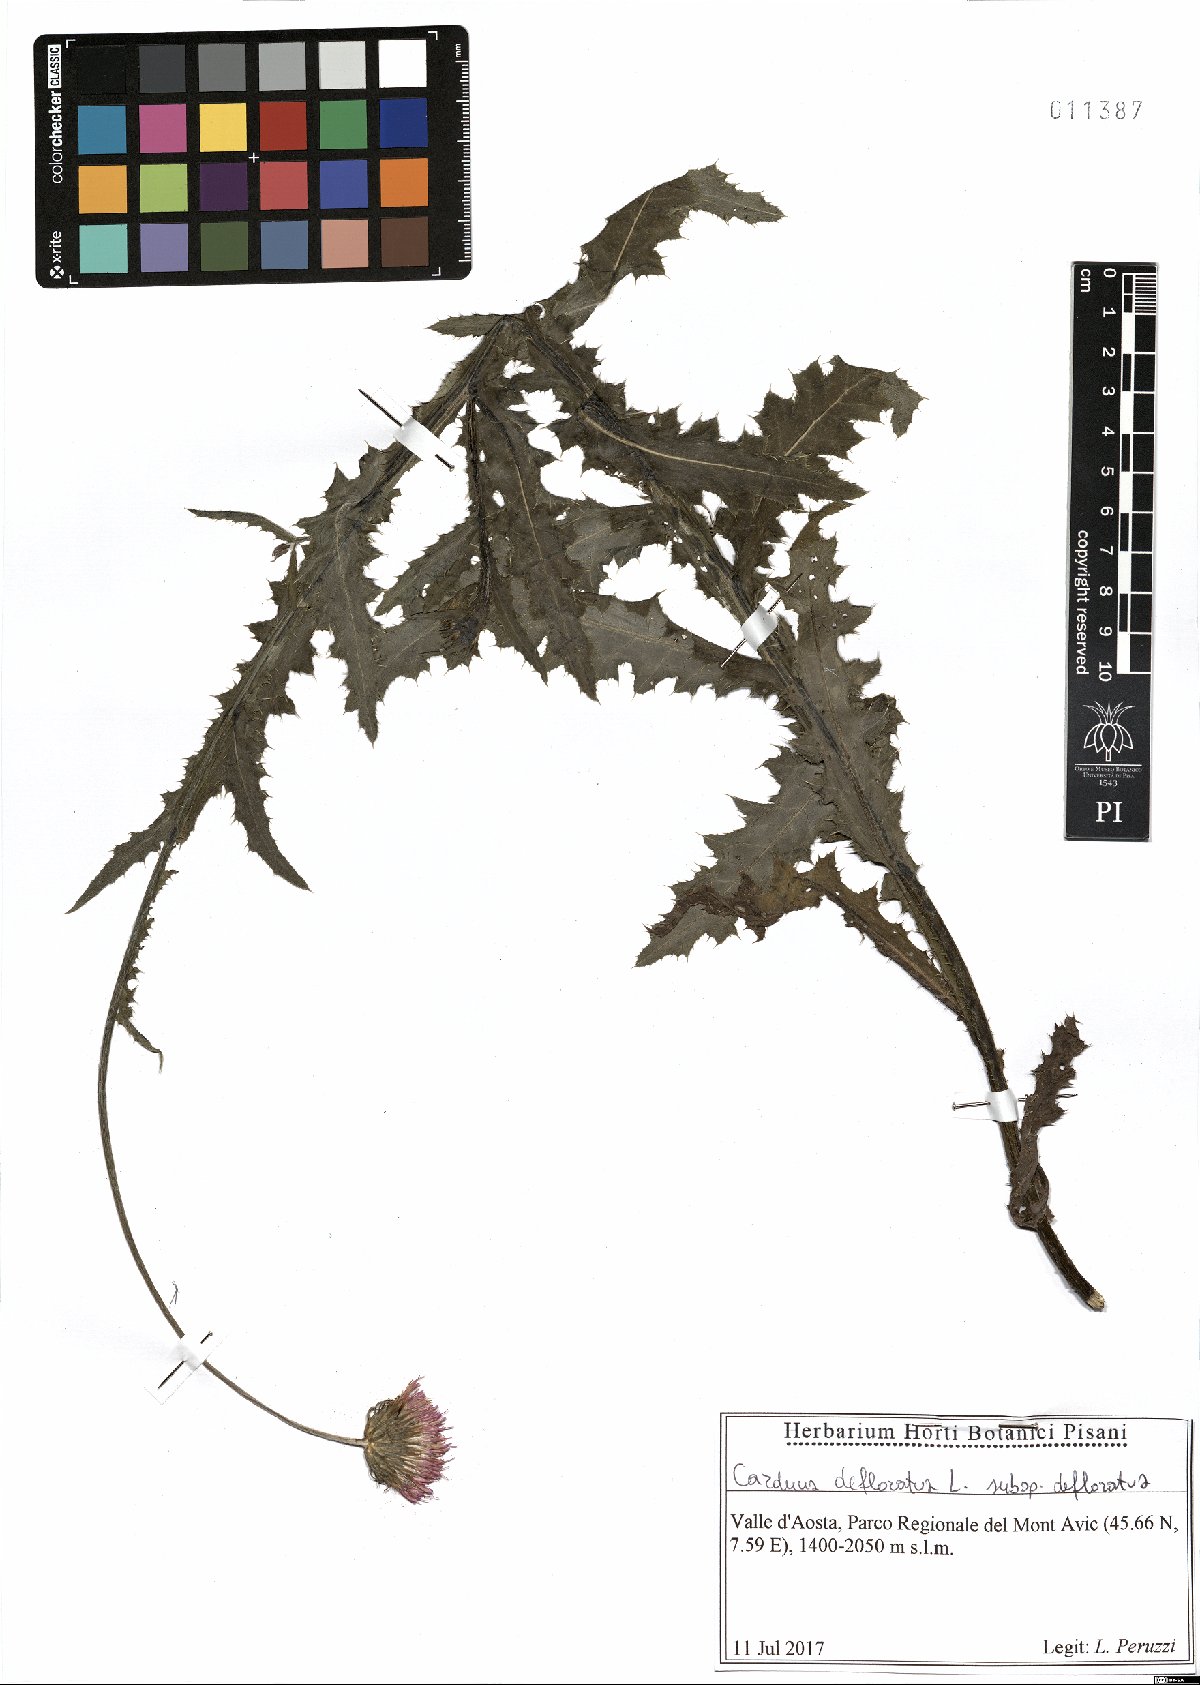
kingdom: Plantae
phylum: Tracheophyta
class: Magnoliopsida
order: Asterales
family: Asteraceae
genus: Carduus
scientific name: Carduus defloratus
